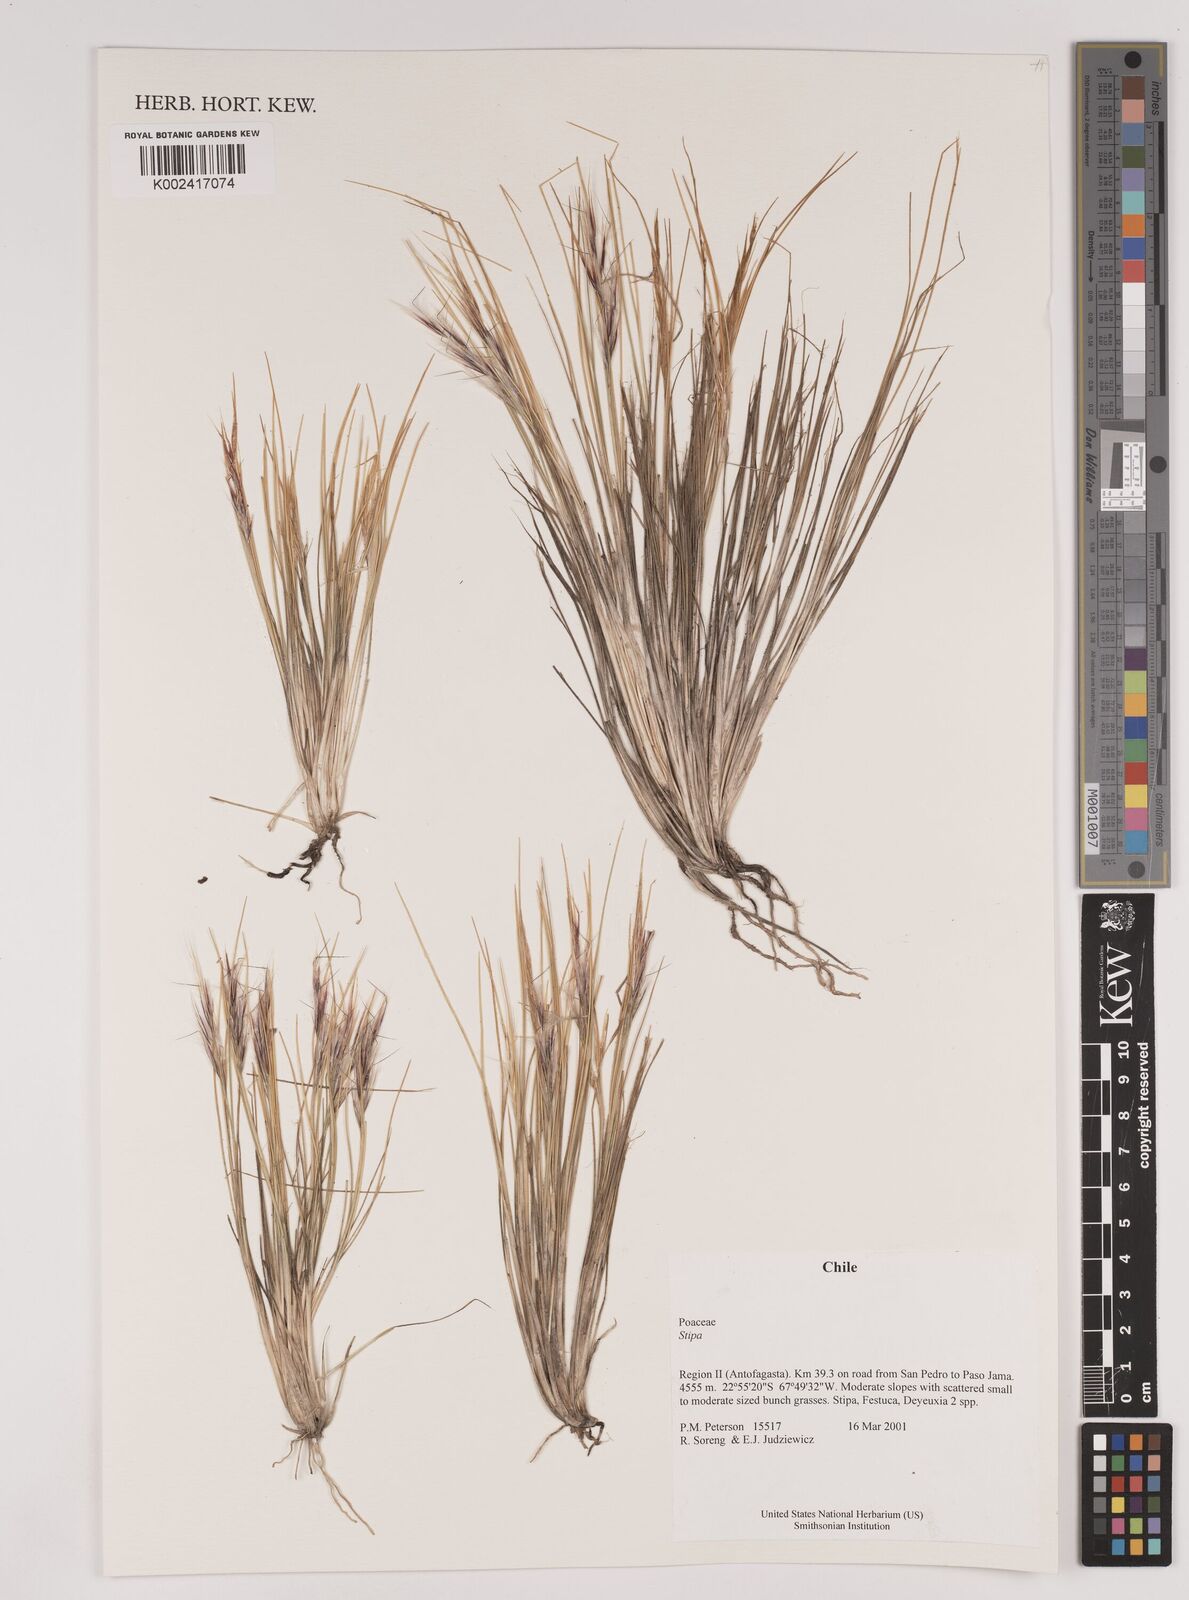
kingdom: Plantae
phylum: Tracheophyta
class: Liliopsida
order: Poales
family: Poaceae
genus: Pappostipa
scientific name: Pappostipa atacamensis
